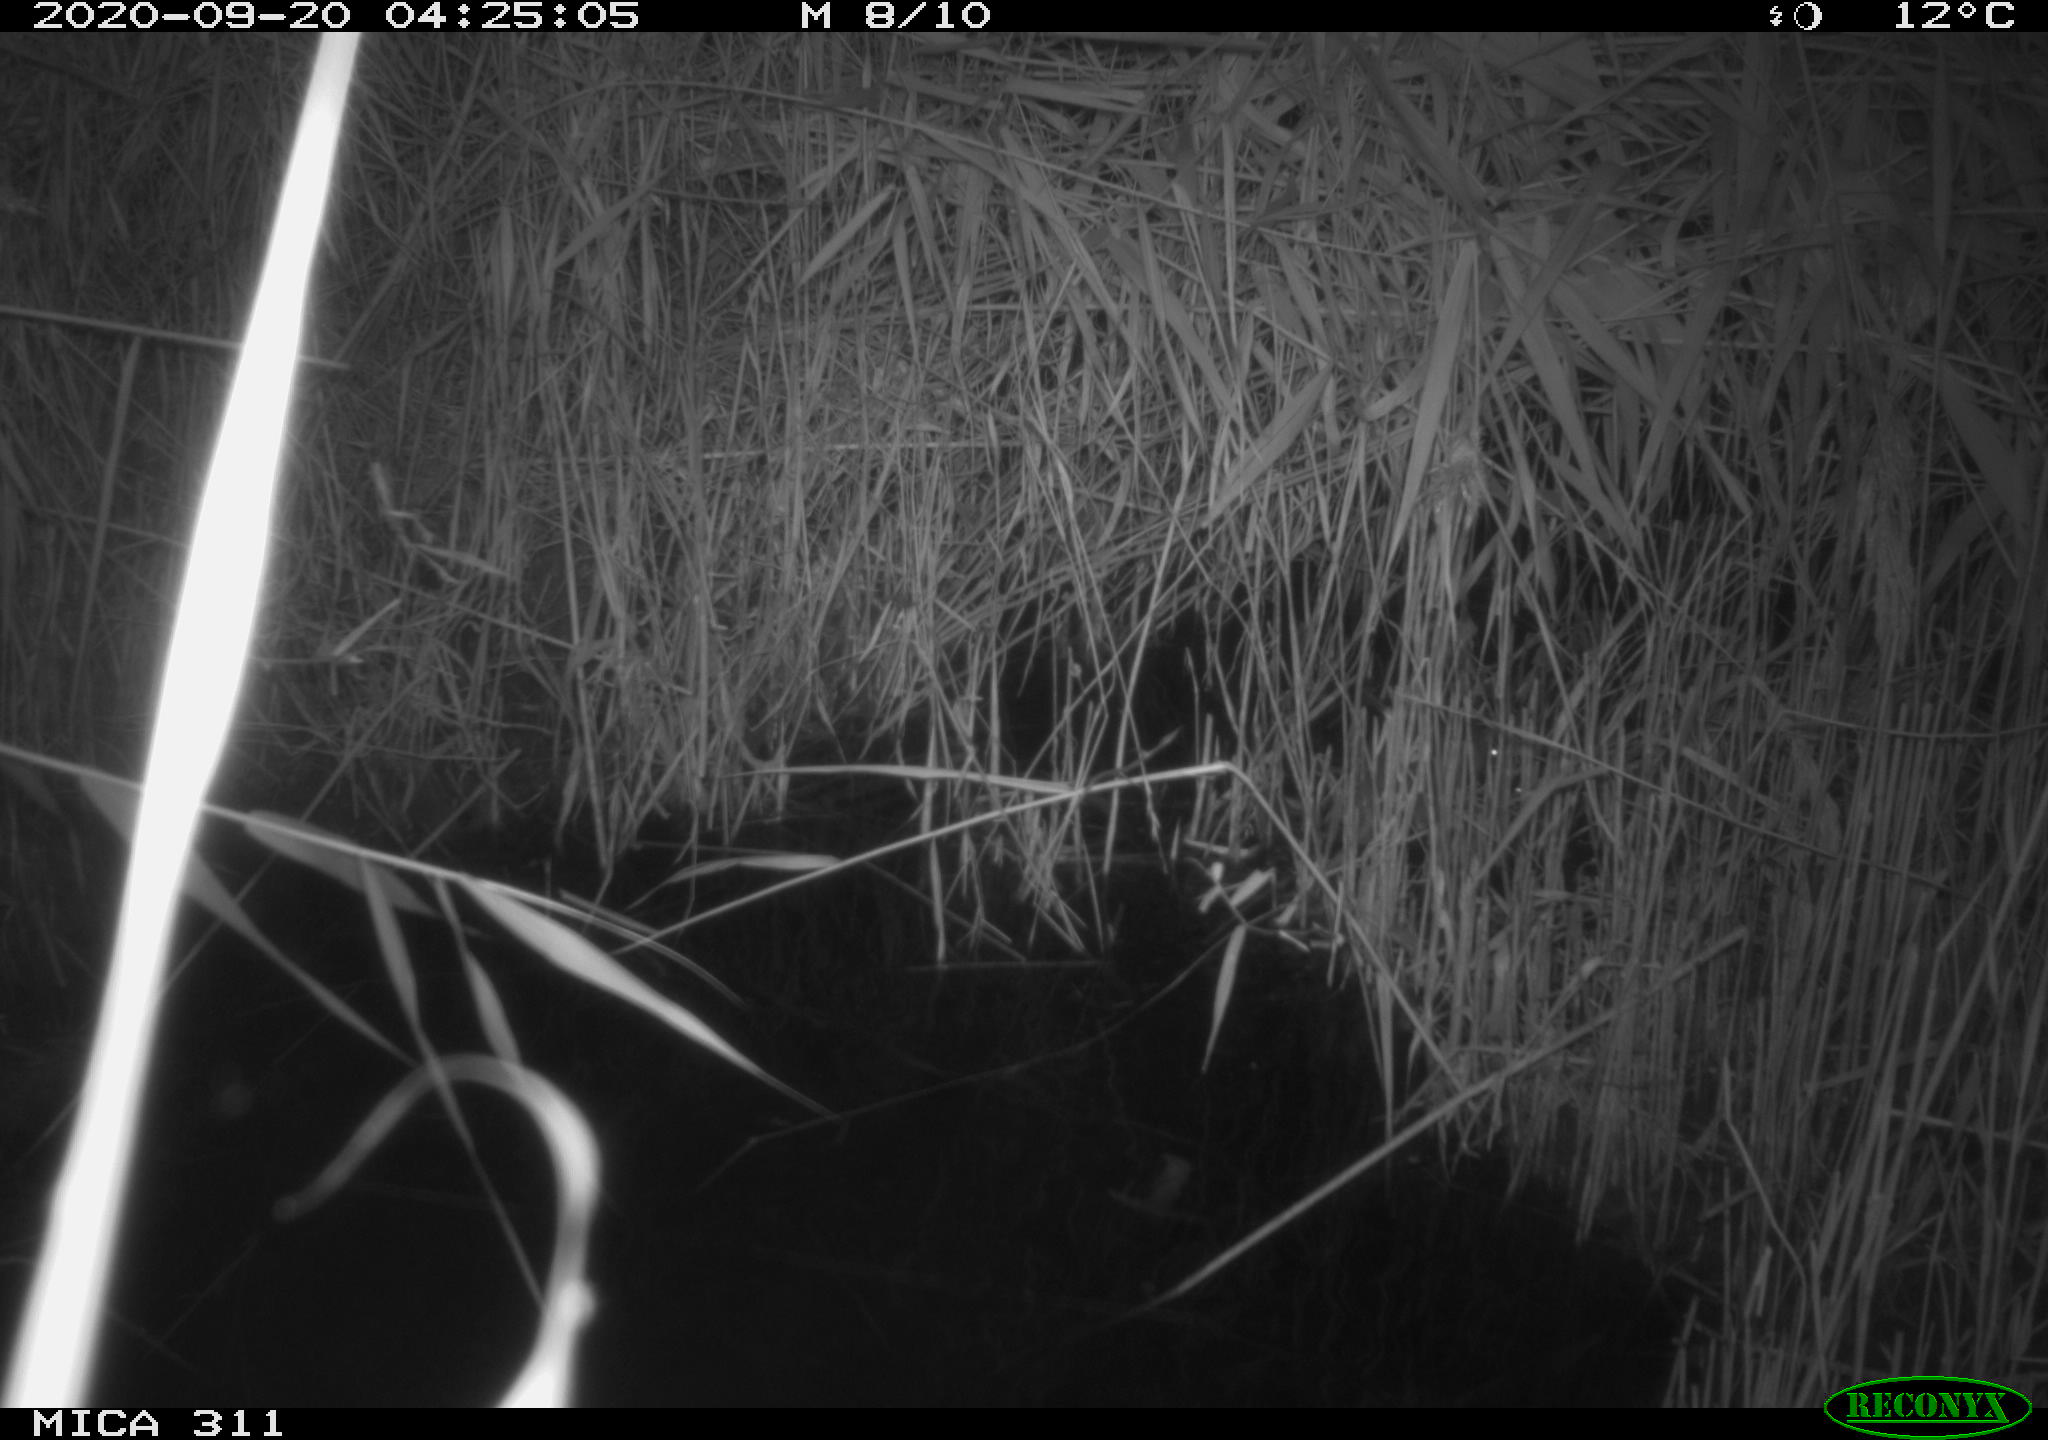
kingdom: Animalia
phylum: Chordata
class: Mammalia
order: Rodentia
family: Muridae
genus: Rattus
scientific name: Rattus norvegicus
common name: Brown rat
